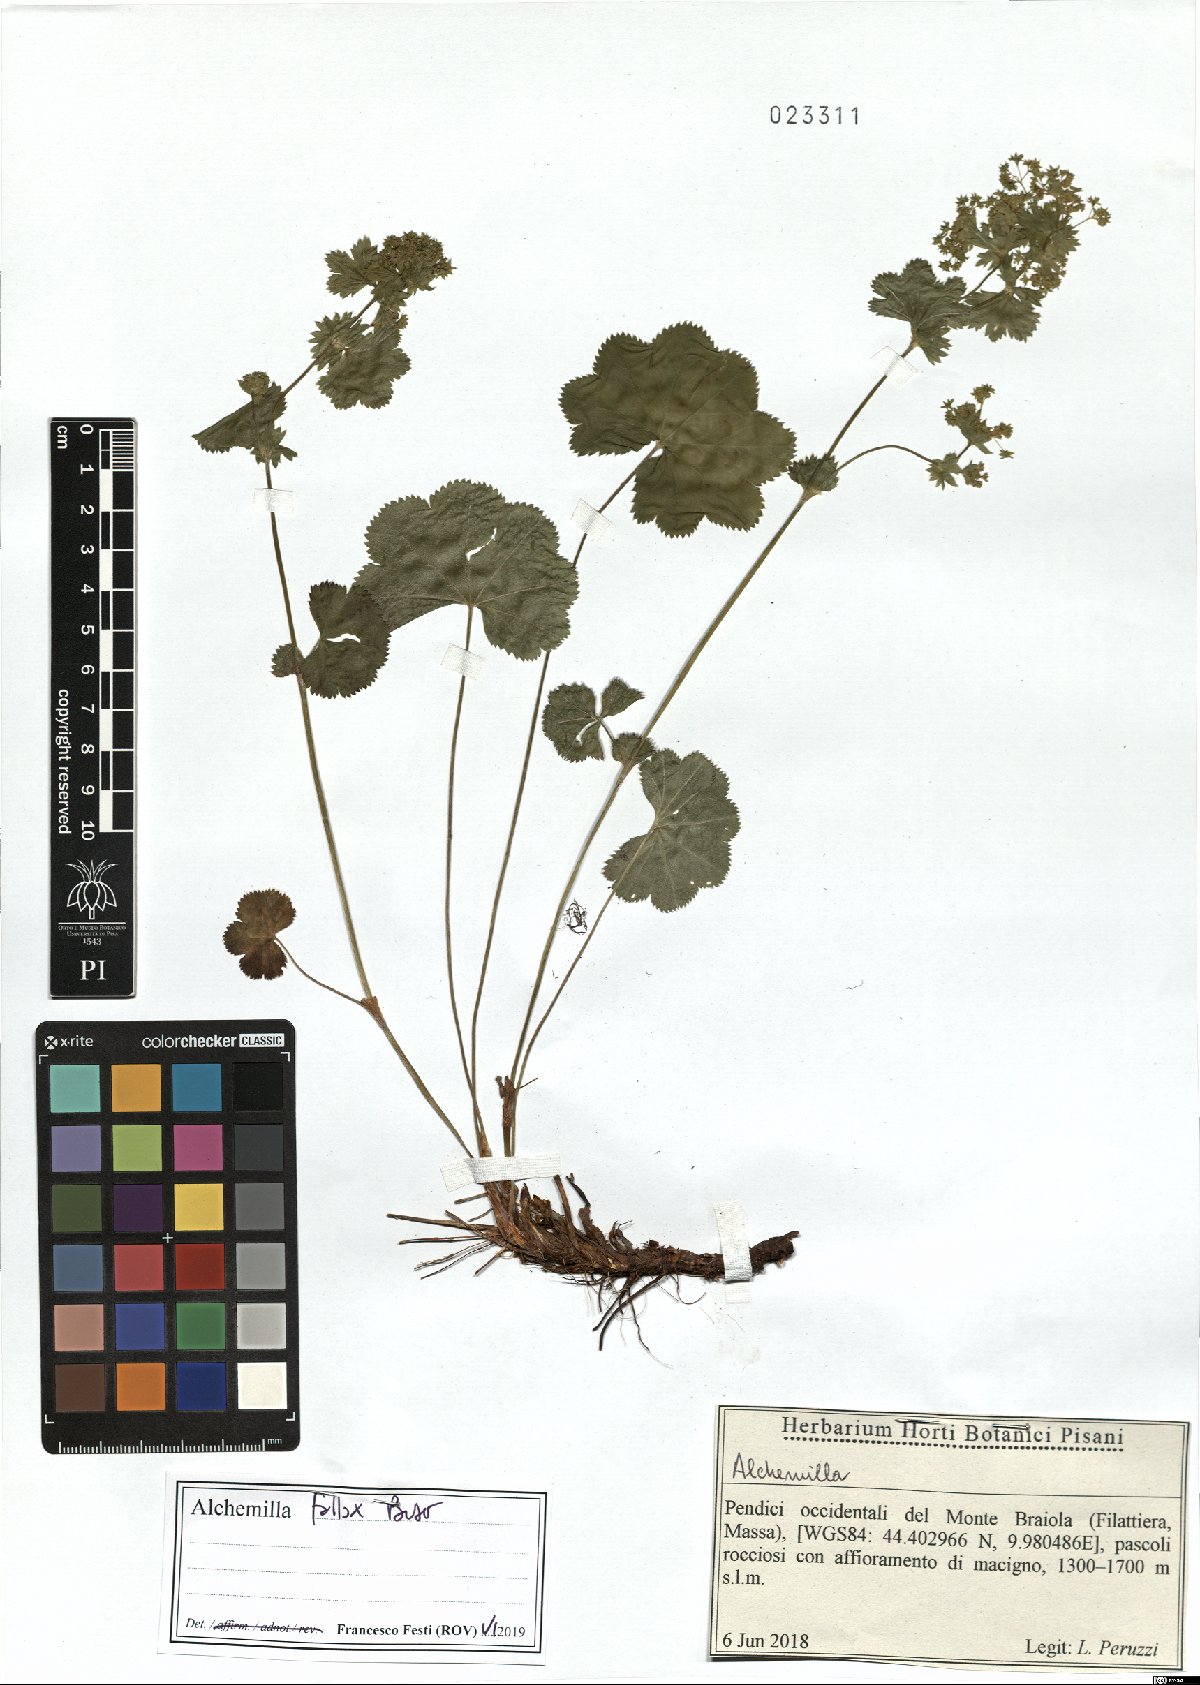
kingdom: Plantae
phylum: Tracheophyta
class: Magnoliopsida
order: Rosales
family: Rosaceae
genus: Alchemilla
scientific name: Alchemilla fallax
